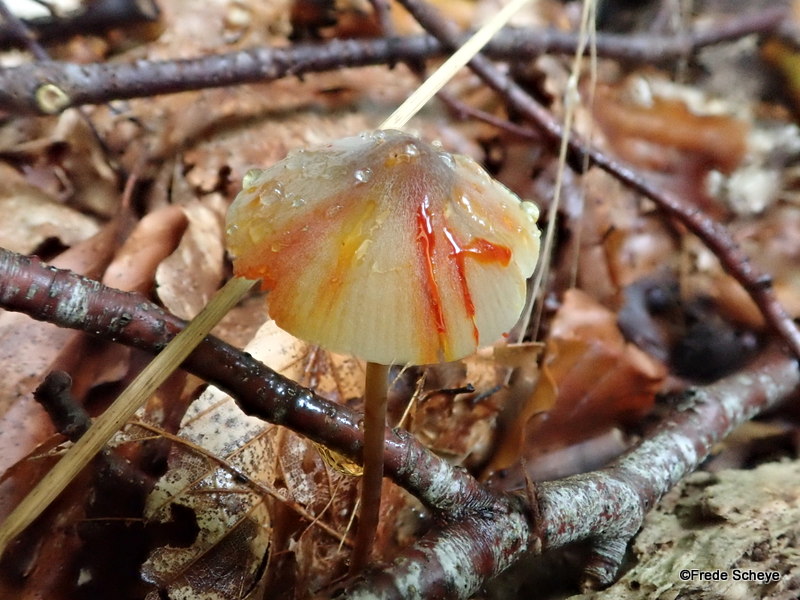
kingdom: Fungi
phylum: Basidiomycota
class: Agaricomycetes
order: Agaricales
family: Mycenaceae
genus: Mycena
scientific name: Mycena crocata
